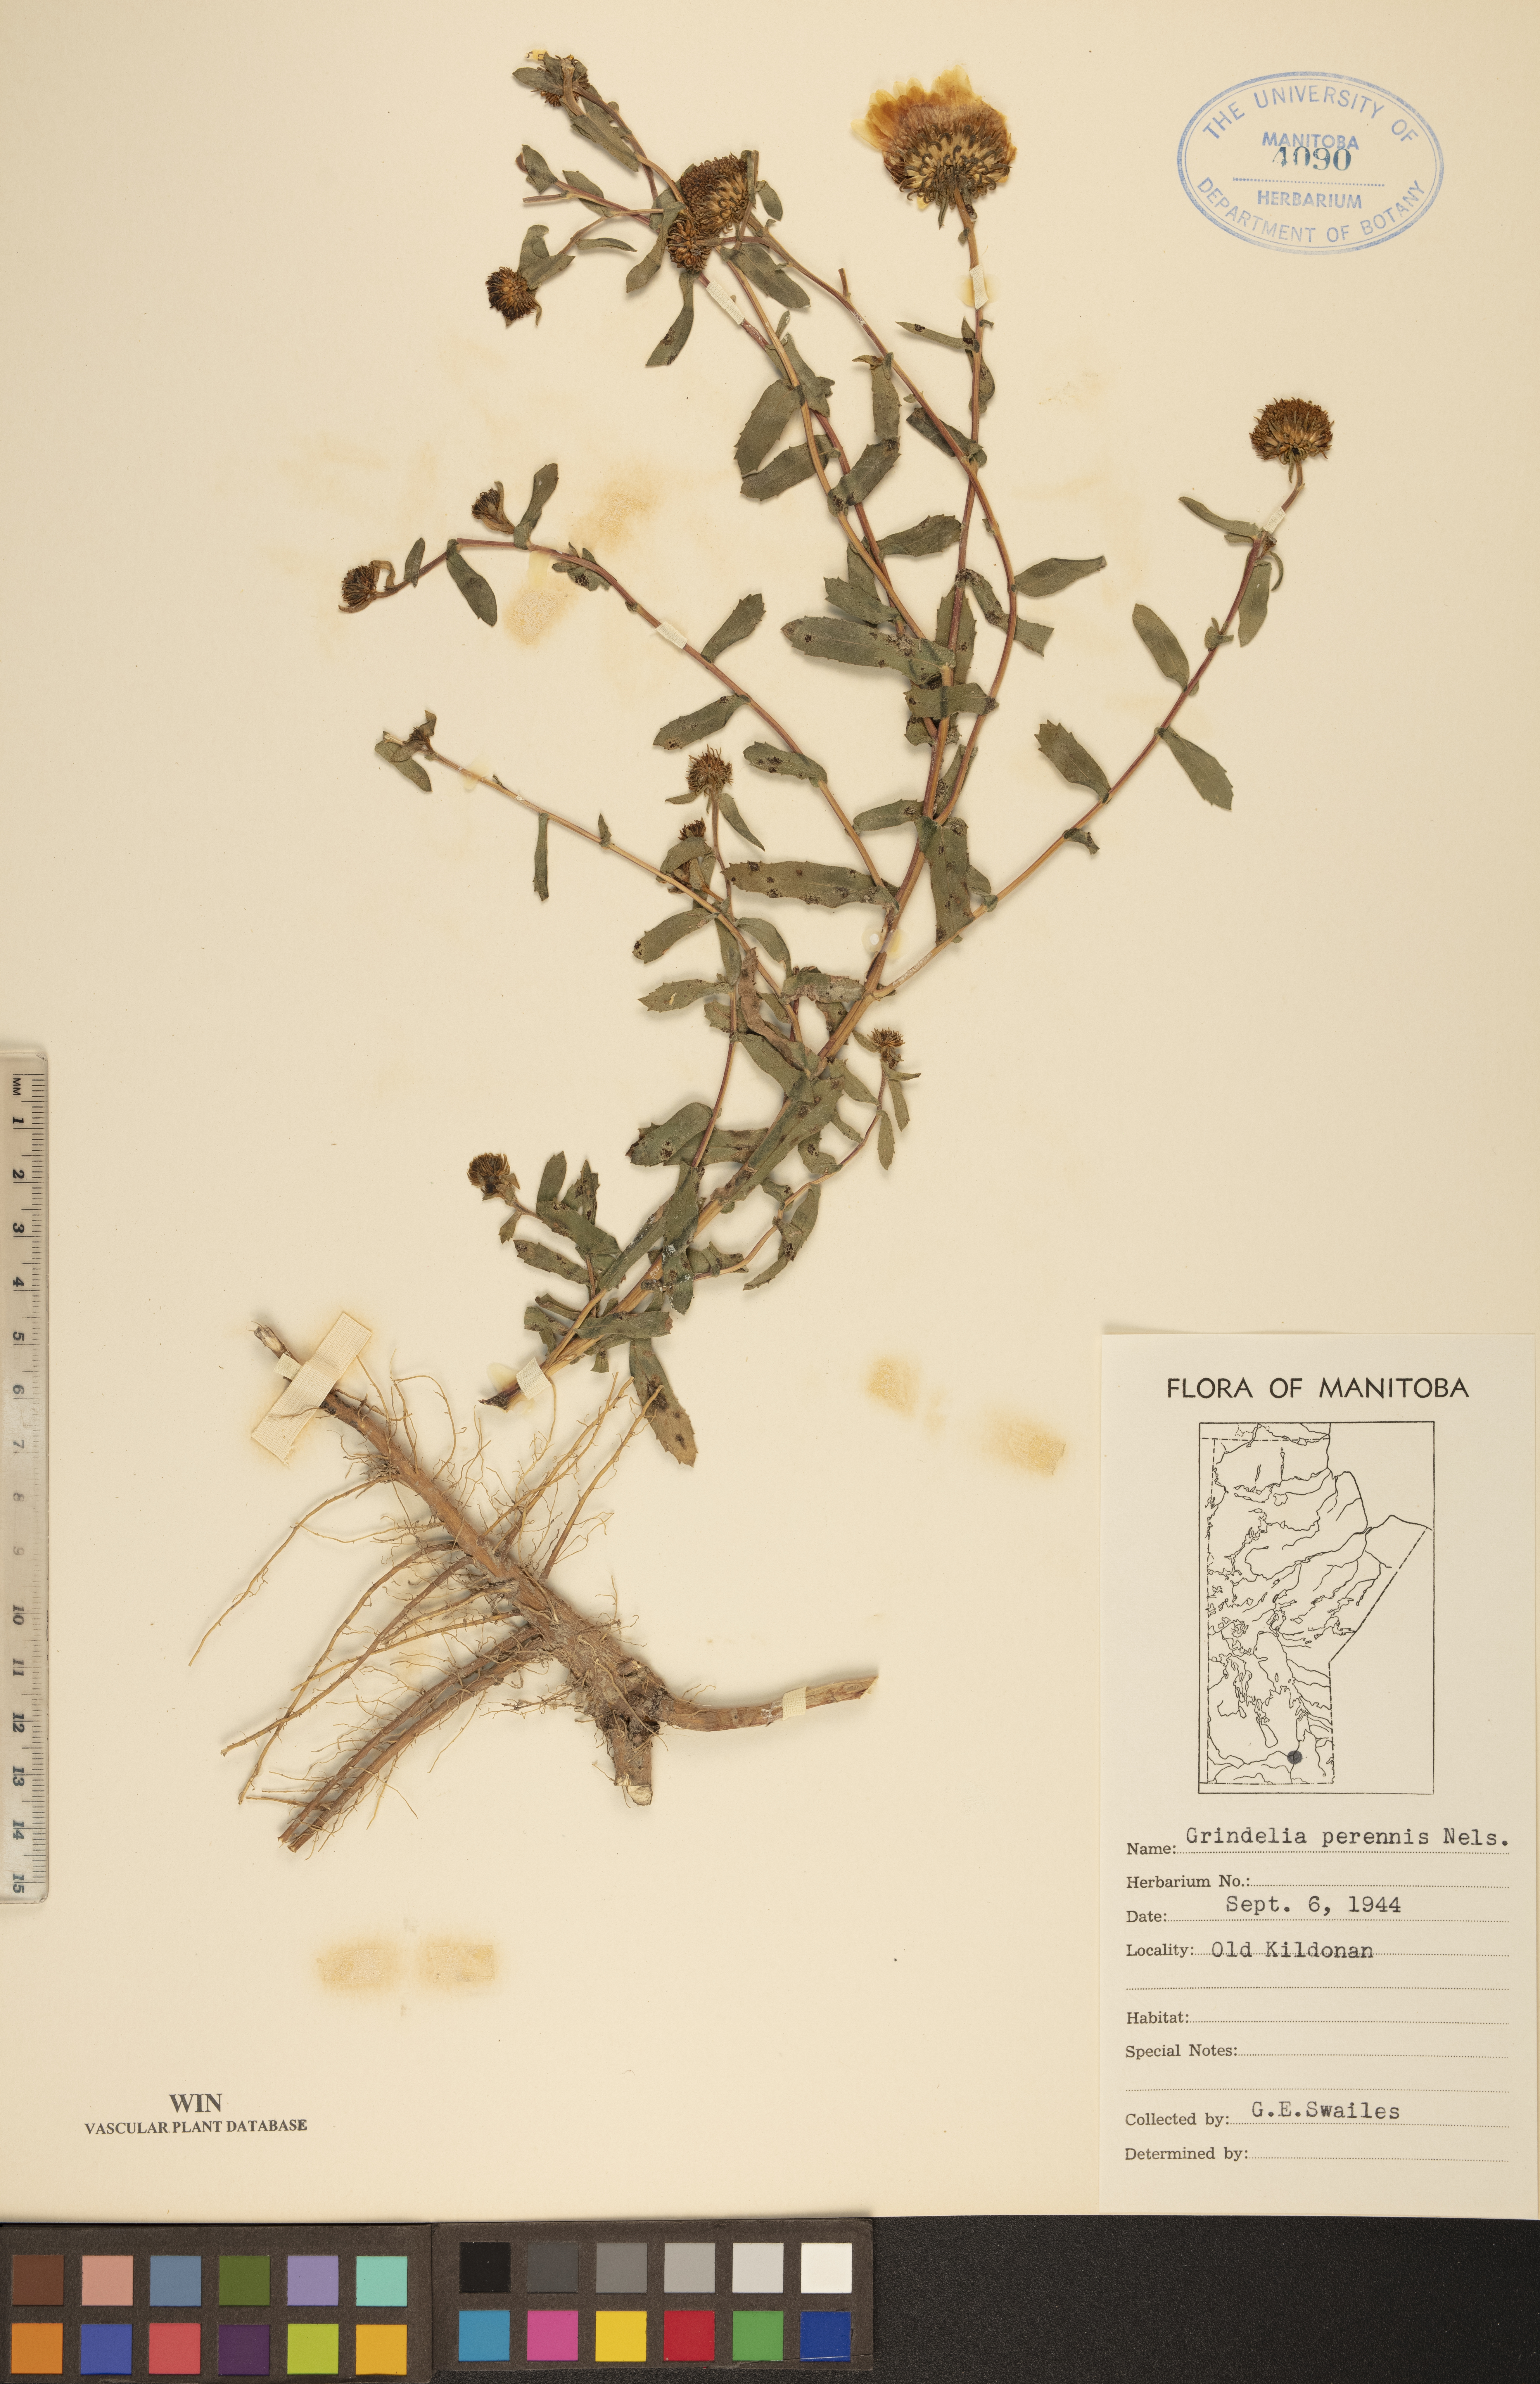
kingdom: Plantae
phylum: Tracheophyta
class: Magnoliopsida
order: Asterales
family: Asteraceae
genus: Grindelia
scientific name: Grindelia hirsutula
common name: Hairy gumweed
